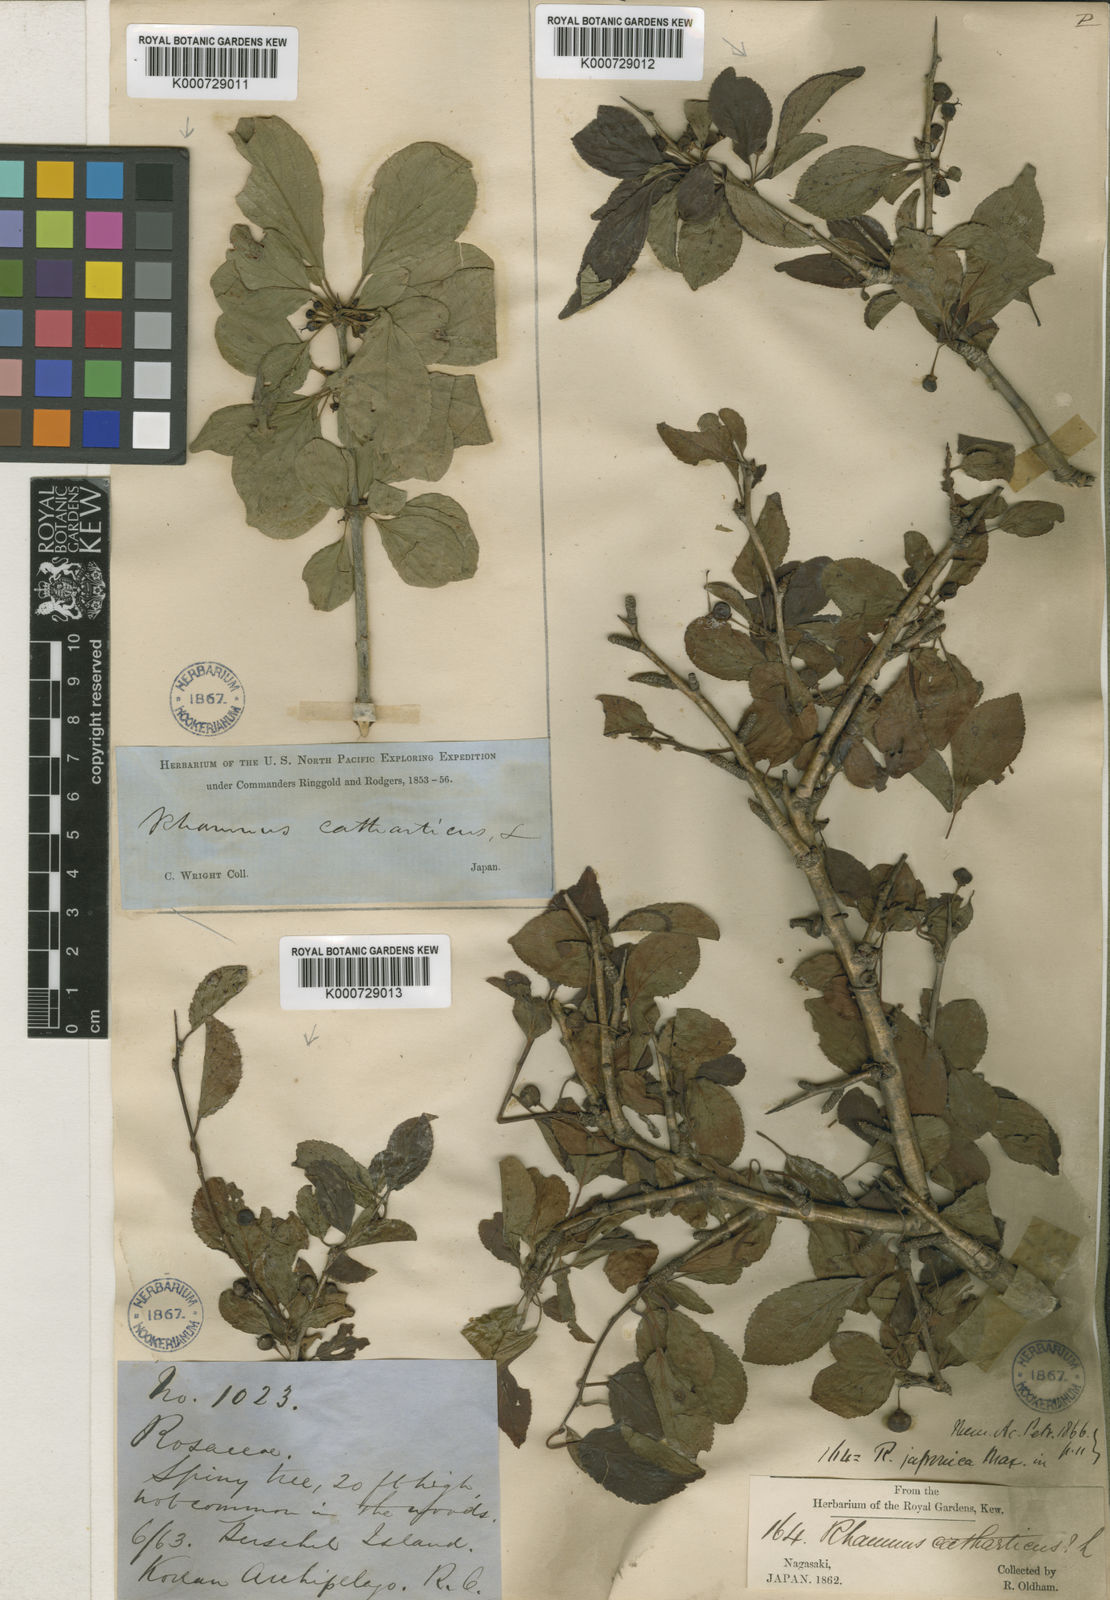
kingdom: Plantae
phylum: Tracheophyta
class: Magnoliopsida
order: Rosales
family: Rhamnaceae
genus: Rhamnus
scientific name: Rhamnus cathartica
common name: Common buckthorn
